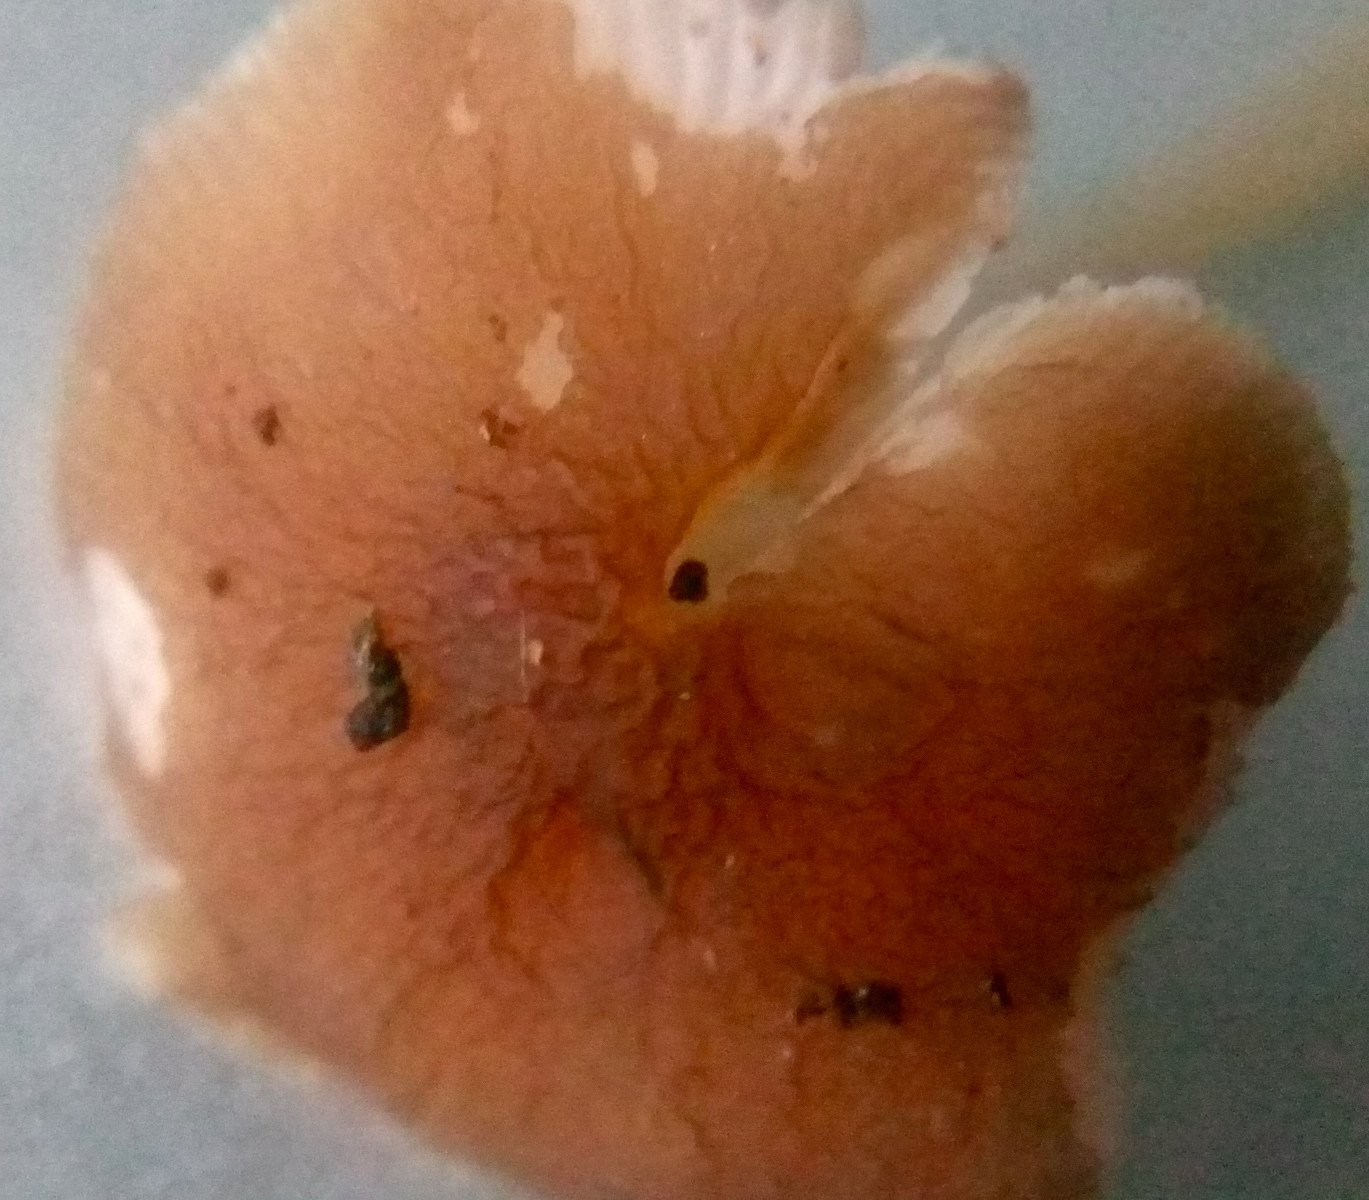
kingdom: Fungi
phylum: Basidiomycota
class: Agaricomycetes
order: Agaricales
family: Pluteaceae
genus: Pluteus
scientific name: Pluteus phlebophorus
